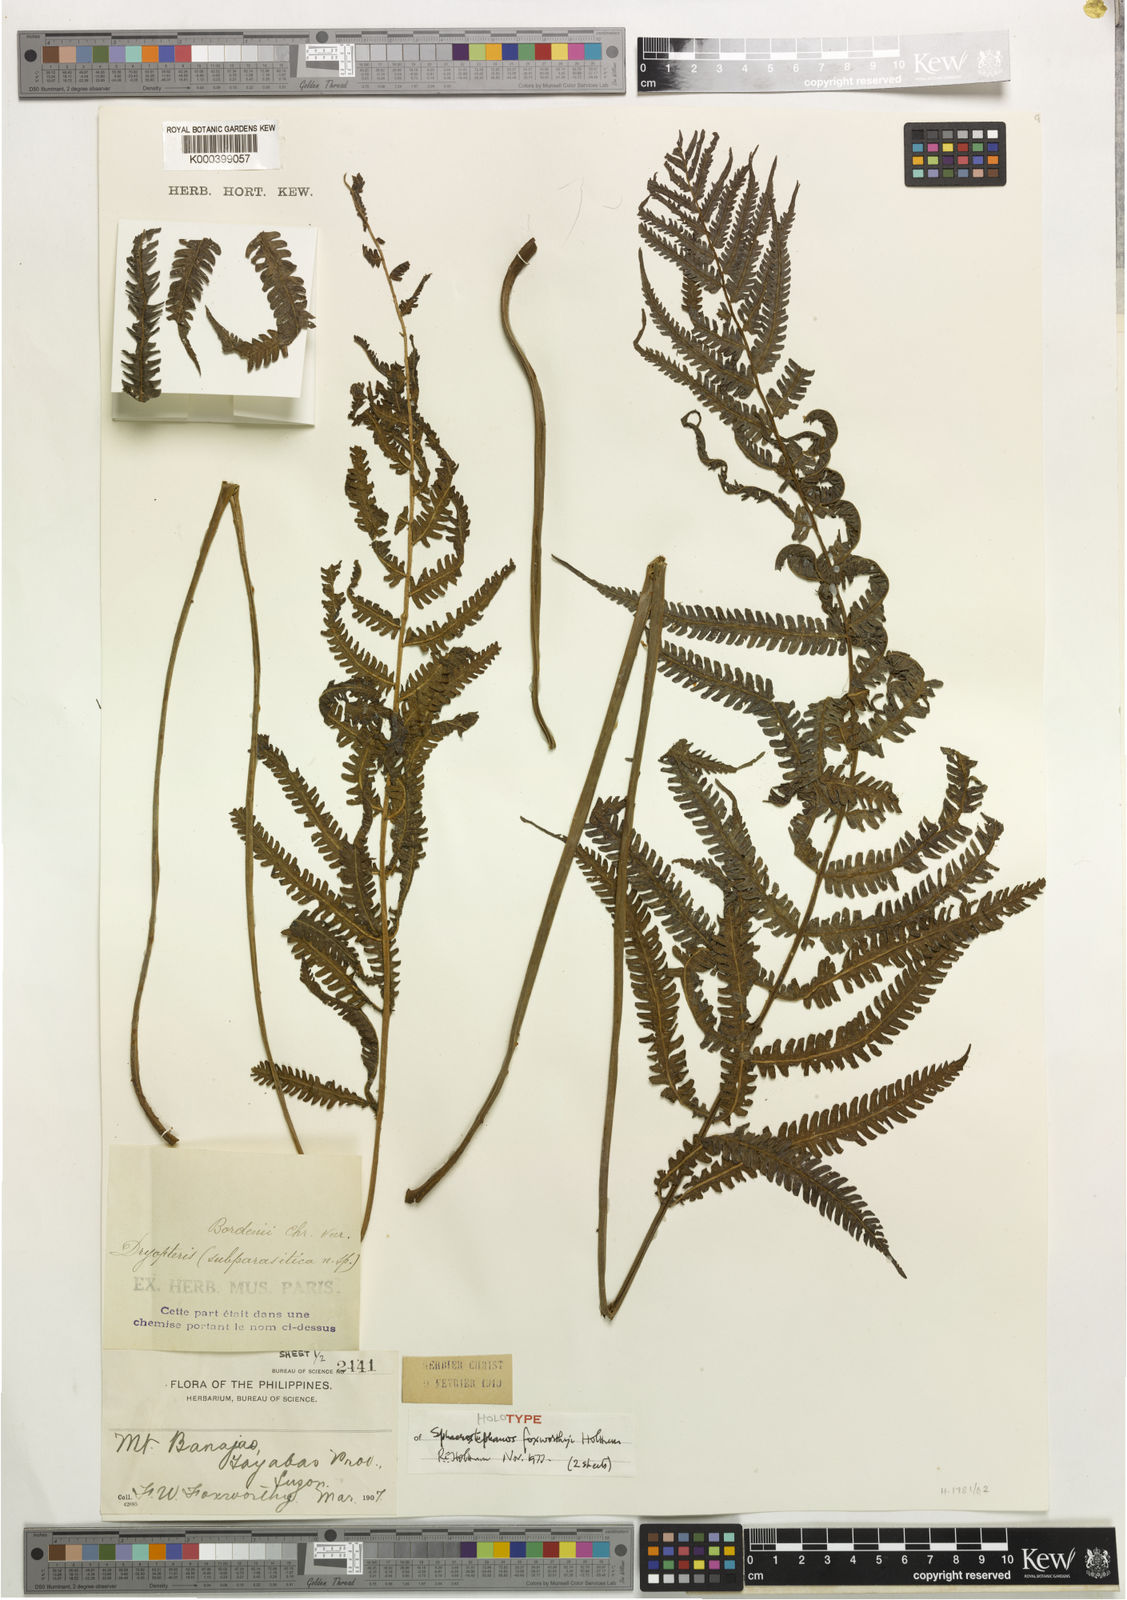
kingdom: Plantae
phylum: Tracheophyta
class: Polypodiopsida
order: Polypodiales
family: Thelypteridaceae
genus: Sphaerostephanos
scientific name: Sphaerostephanos foxworthyi
